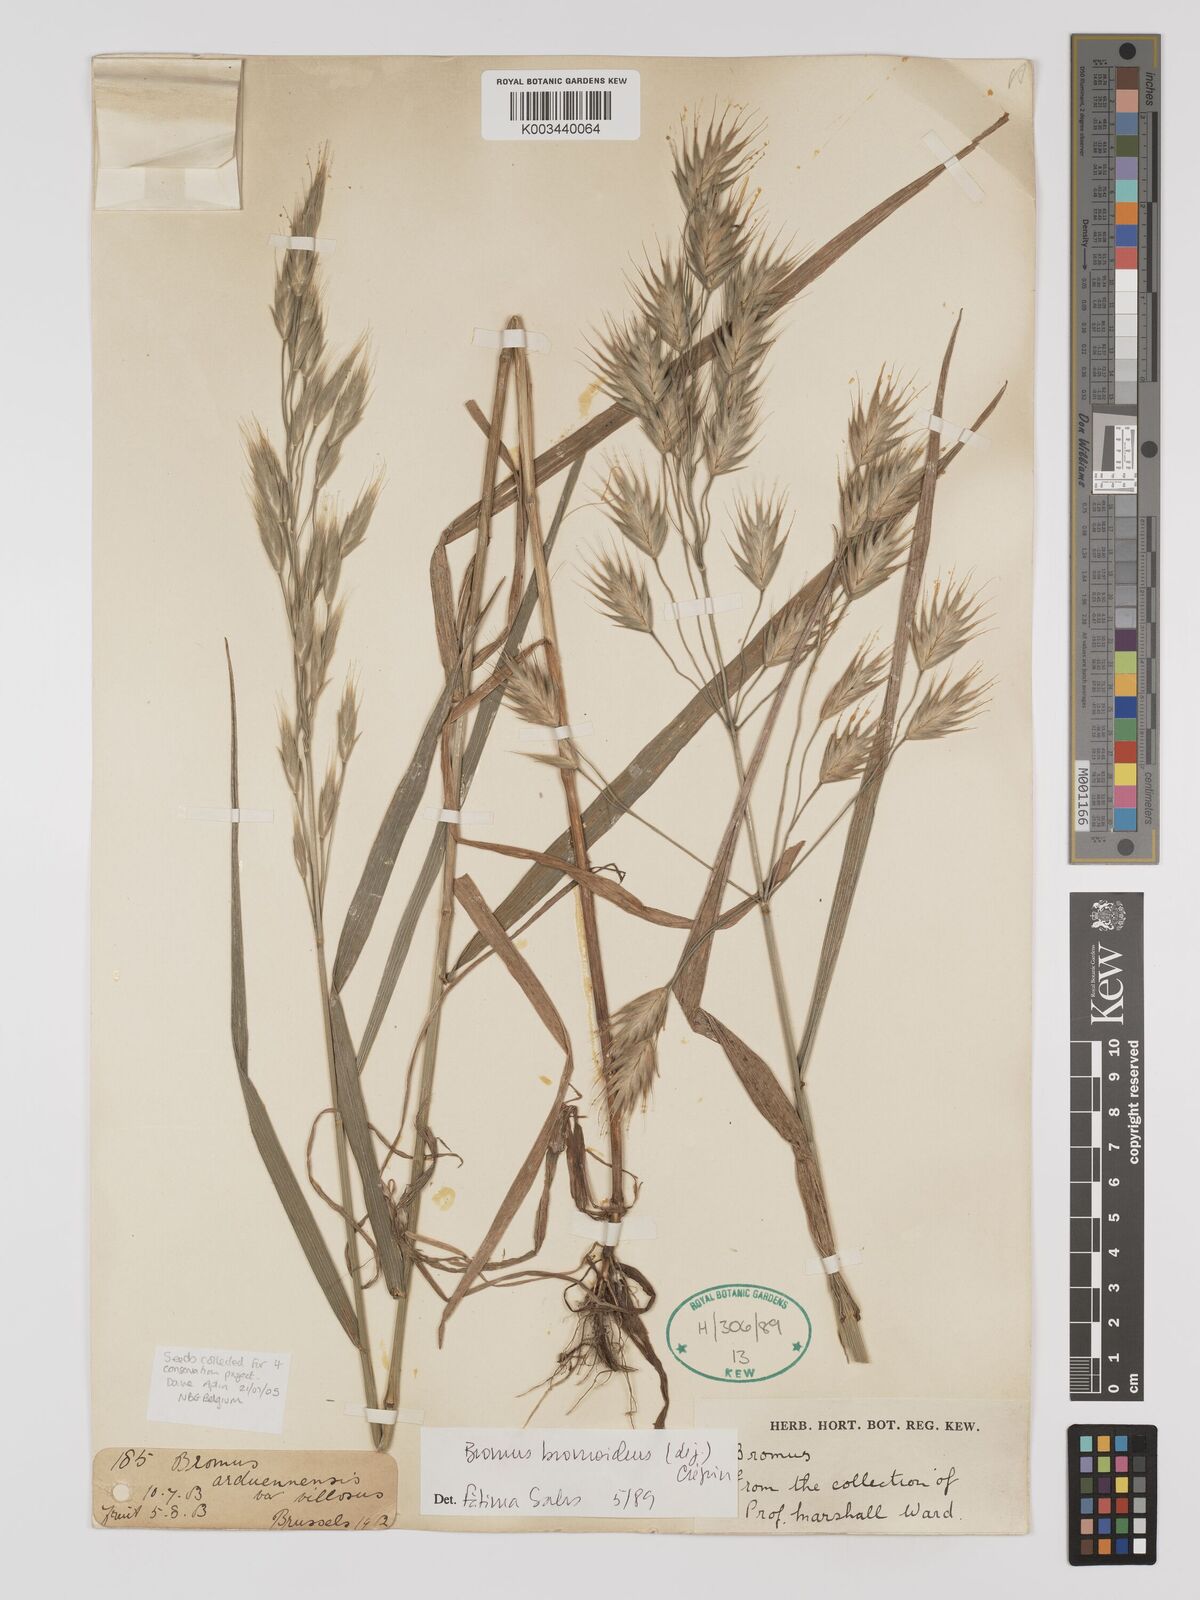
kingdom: Plantae
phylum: Tracheophyta
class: Liliopsida
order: Poales
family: Poaceae
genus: Bromus
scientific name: Bromus bromoideus
